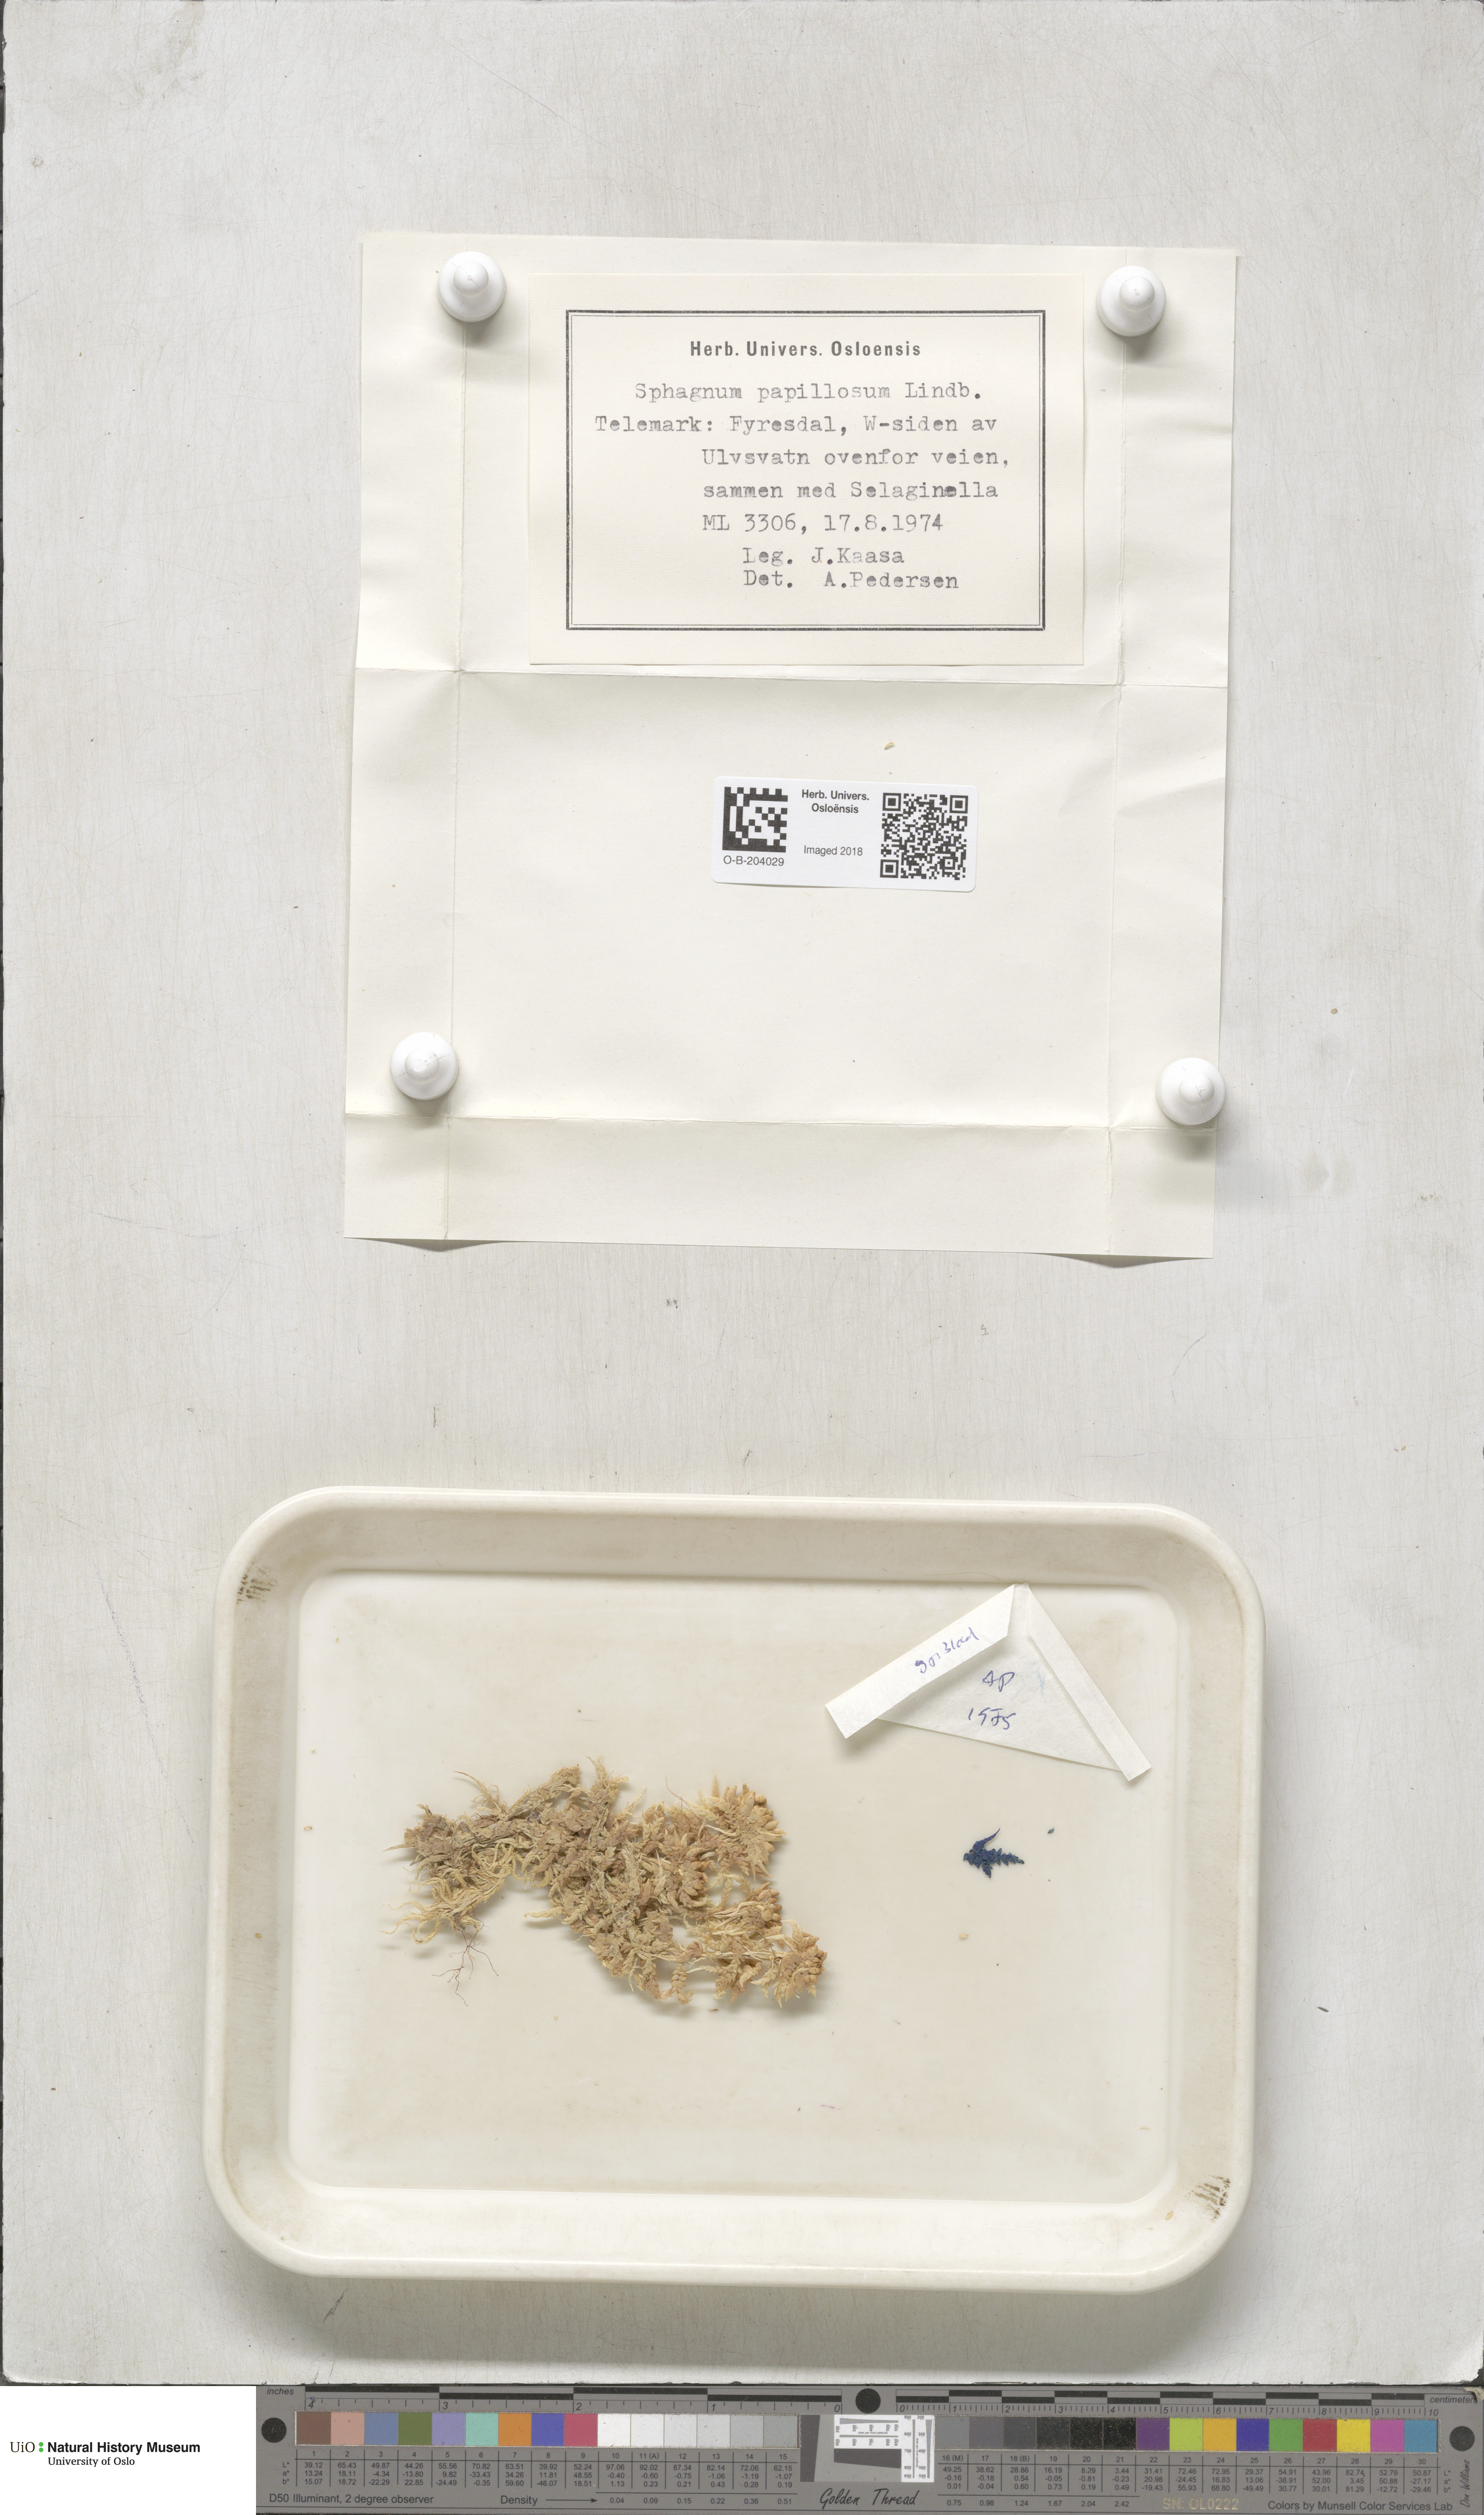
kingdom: Plantae
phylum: Bryophyta
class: Sphagnopsida
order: Sphagnales
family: Sphagnaceae
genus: Sphagnum
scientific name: Sphagnum papillosum
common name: Papillose peat moss
